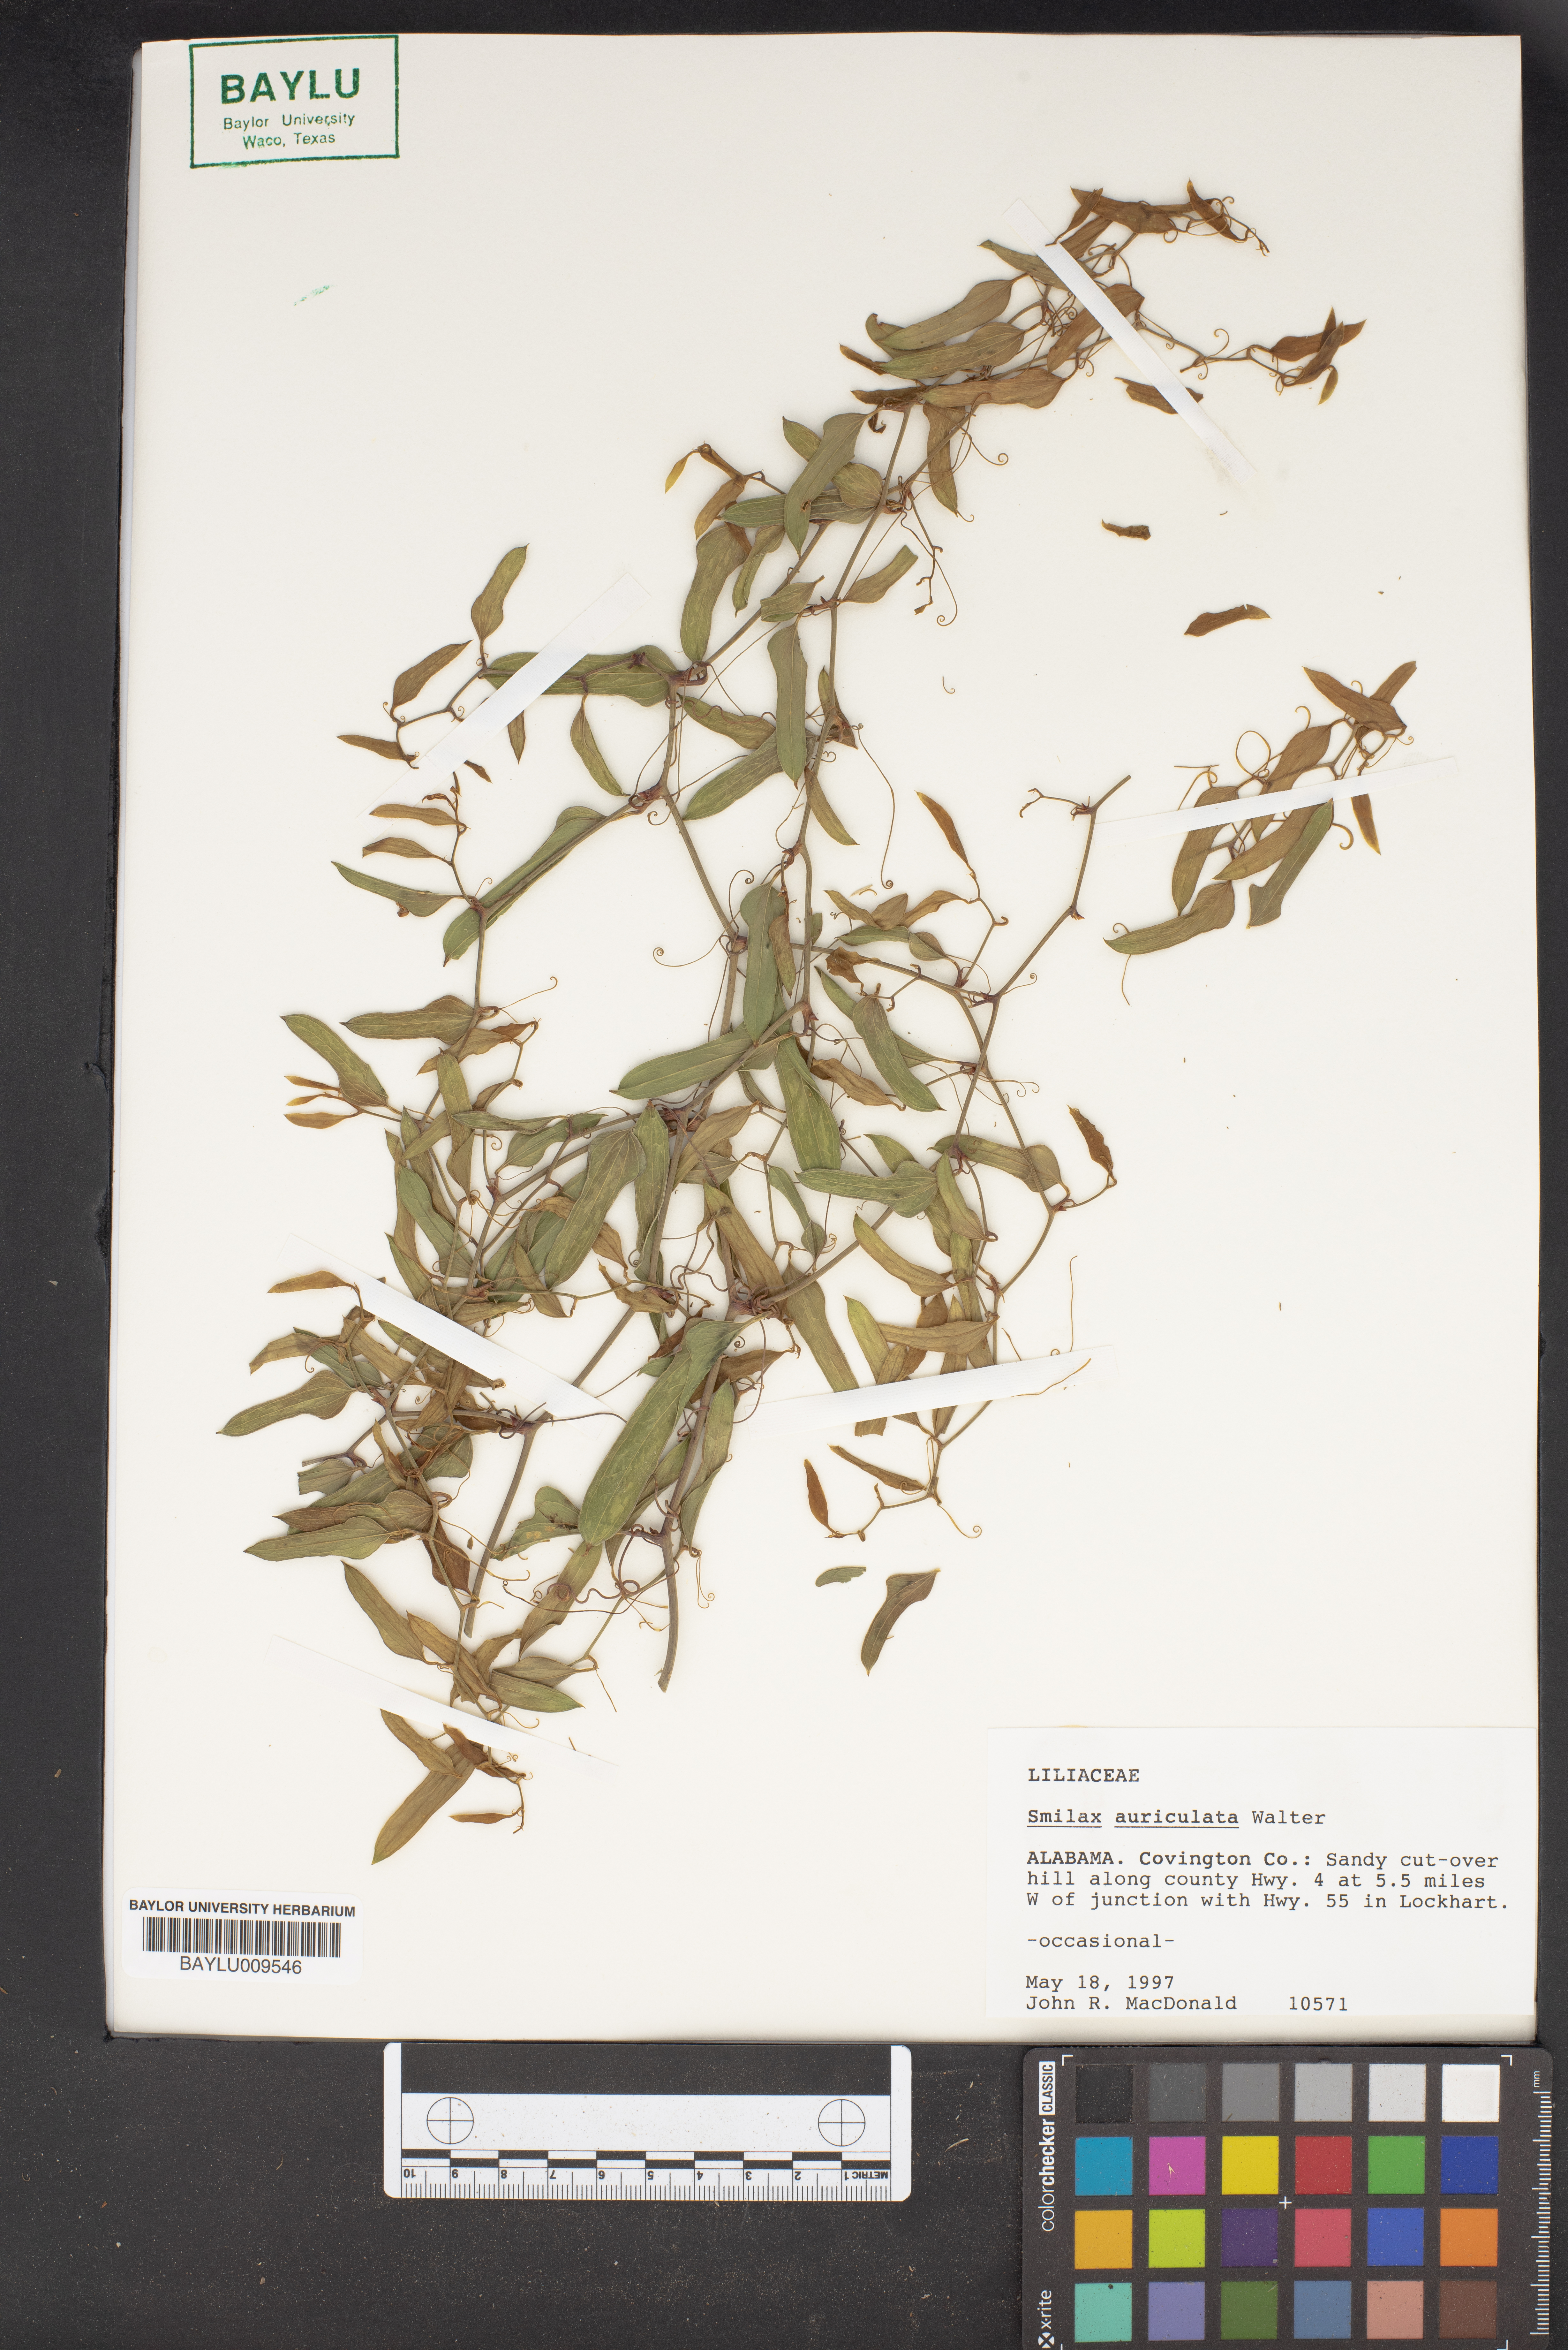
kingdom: Plantae
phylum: Tracheophyta
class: Liliopsida
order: Liliales
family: Smilacaceae
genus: Smilax
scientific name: Smilax auriculata
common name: Wild bamboo
